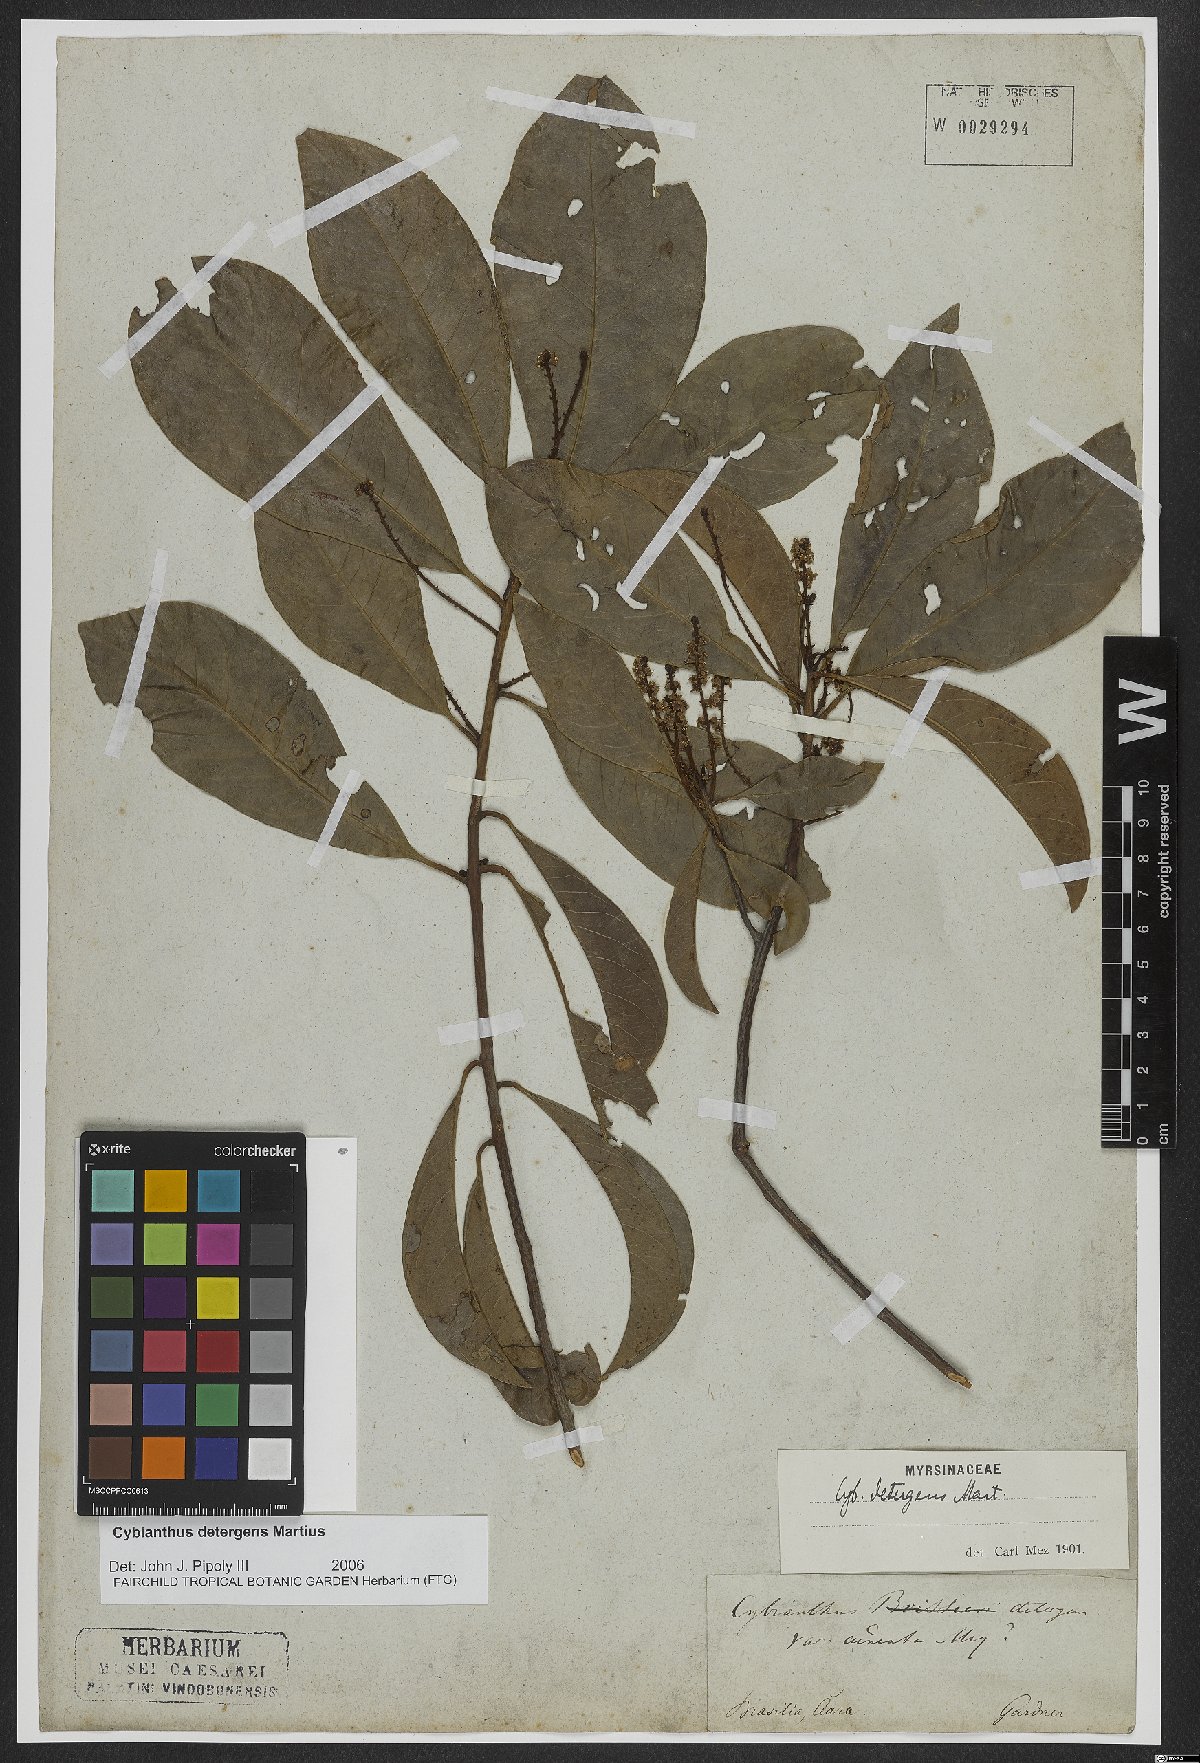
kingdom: Plantae
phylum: Tracheophyta
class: Magnoliopsida
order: Ericales
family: Primulaceae
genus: Cybianthus
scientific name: Cybianthus detergens
